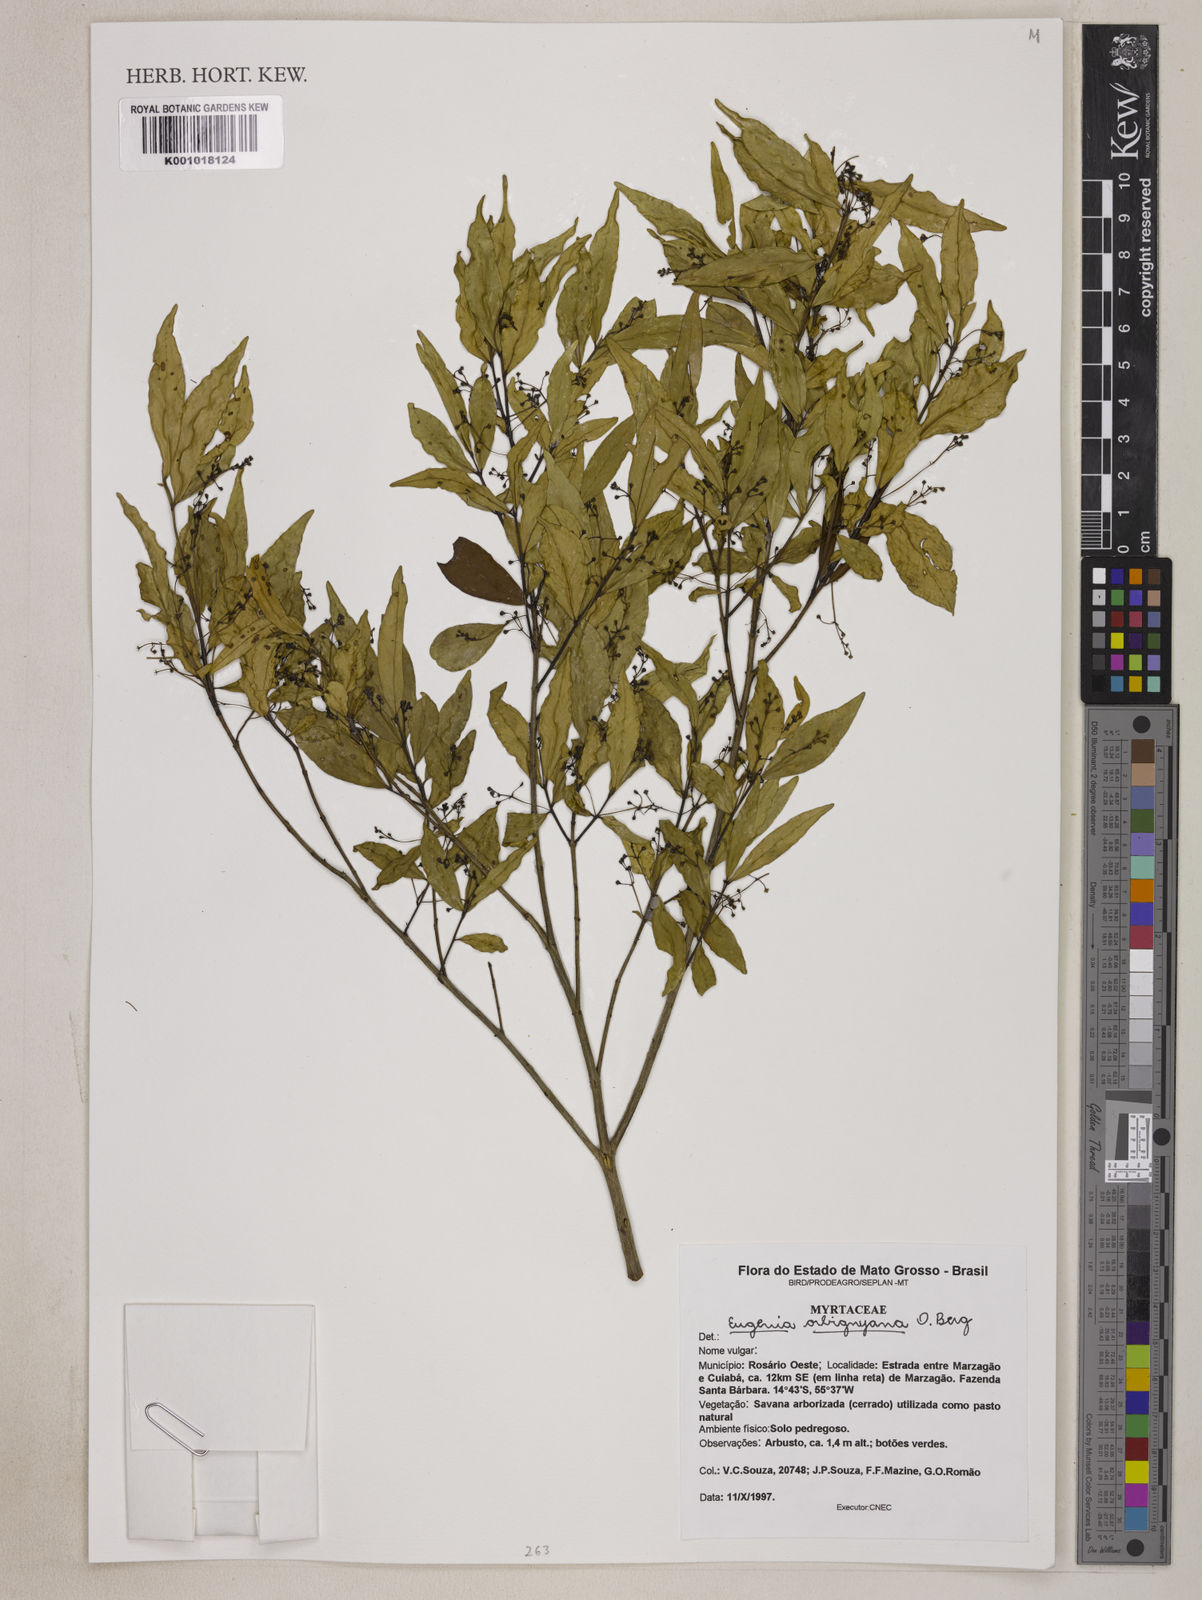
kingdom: Plantae
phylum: Tracheophyta
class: Magnoliopsida
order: Myrtales
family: Myrtaceae
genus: Eugenia
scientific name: Eugenia orbignyana
